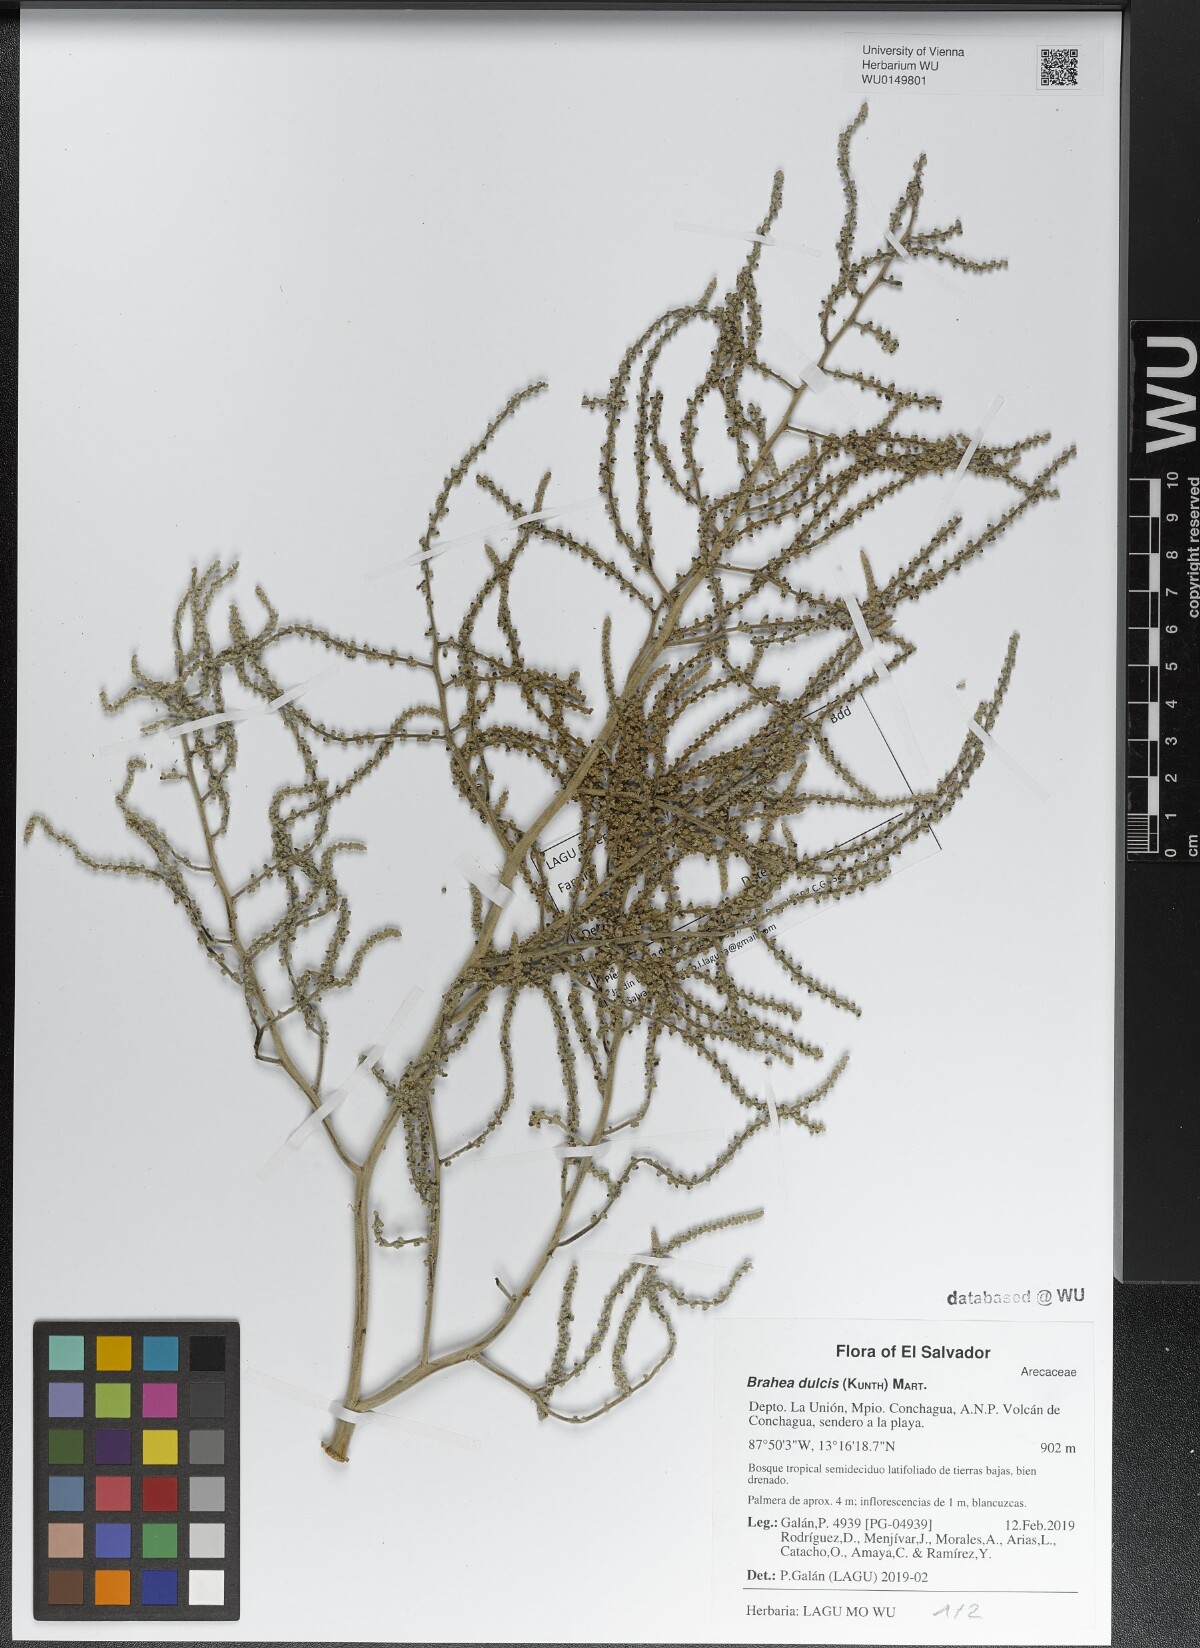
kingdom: Plantae
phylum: Tracheophyta
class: Liliopsida
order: Arecales
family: Arecaceae
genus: Brahea
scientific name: Brahea dulcis
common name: Apak palm
